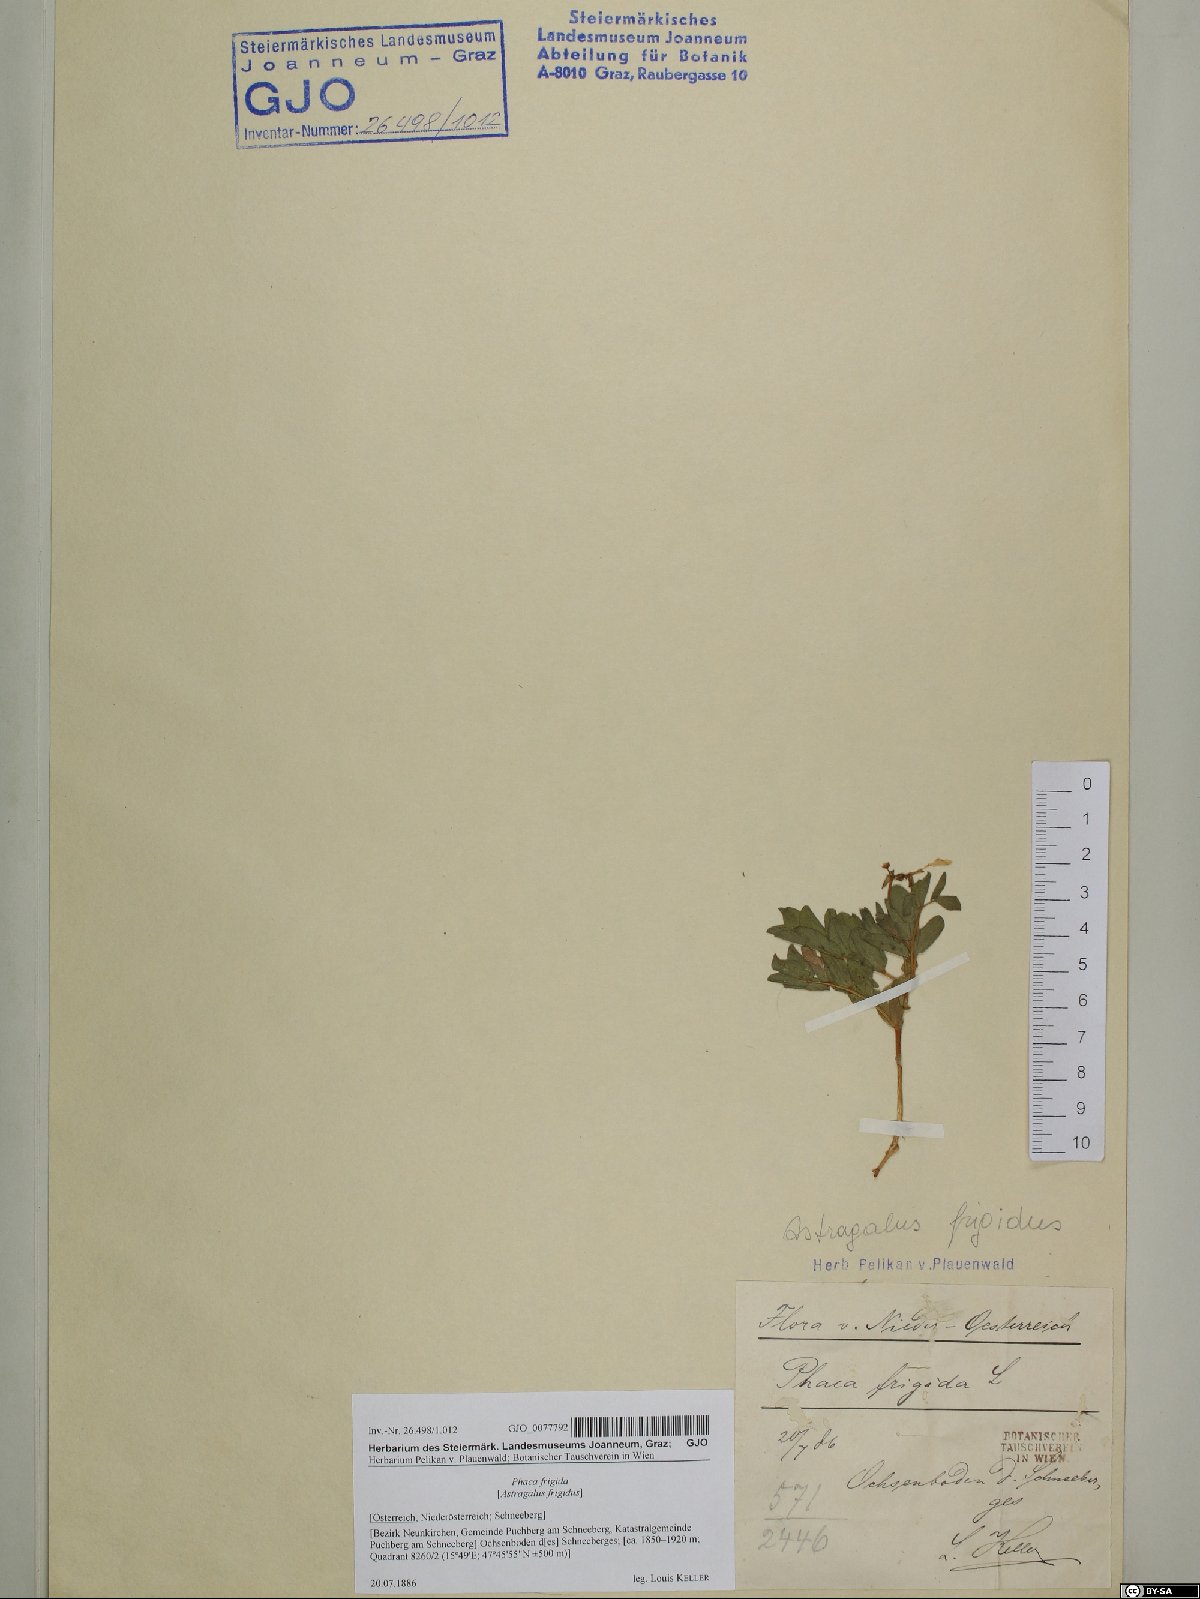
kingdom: Plantae
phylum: Tracheophyta
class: Magnoliopsida
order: Fabales
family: Fabaceae
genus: Astragalus
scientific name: Astragalus frigidus
